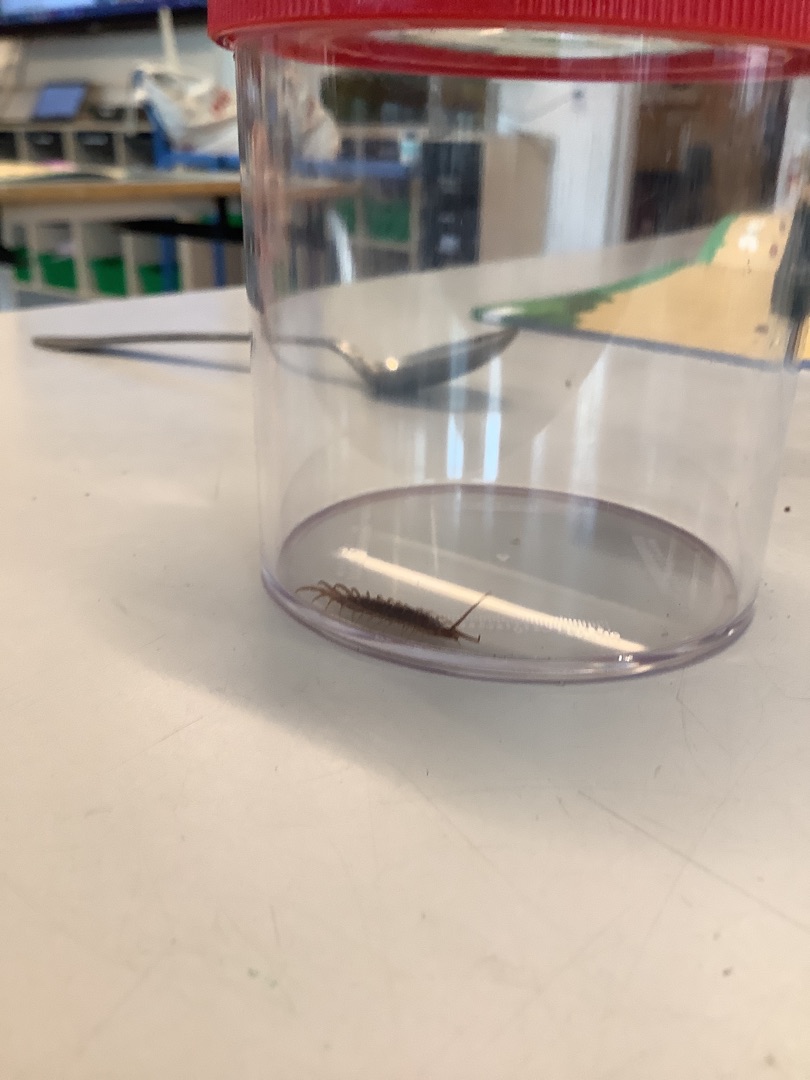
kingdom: Animalia
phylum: Arthropoda
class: Chilopoda
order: Lithobiomorpha
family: Lithobiidae
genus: Lithobius
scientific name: Lithobius forficatus
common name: Stenskolopender
